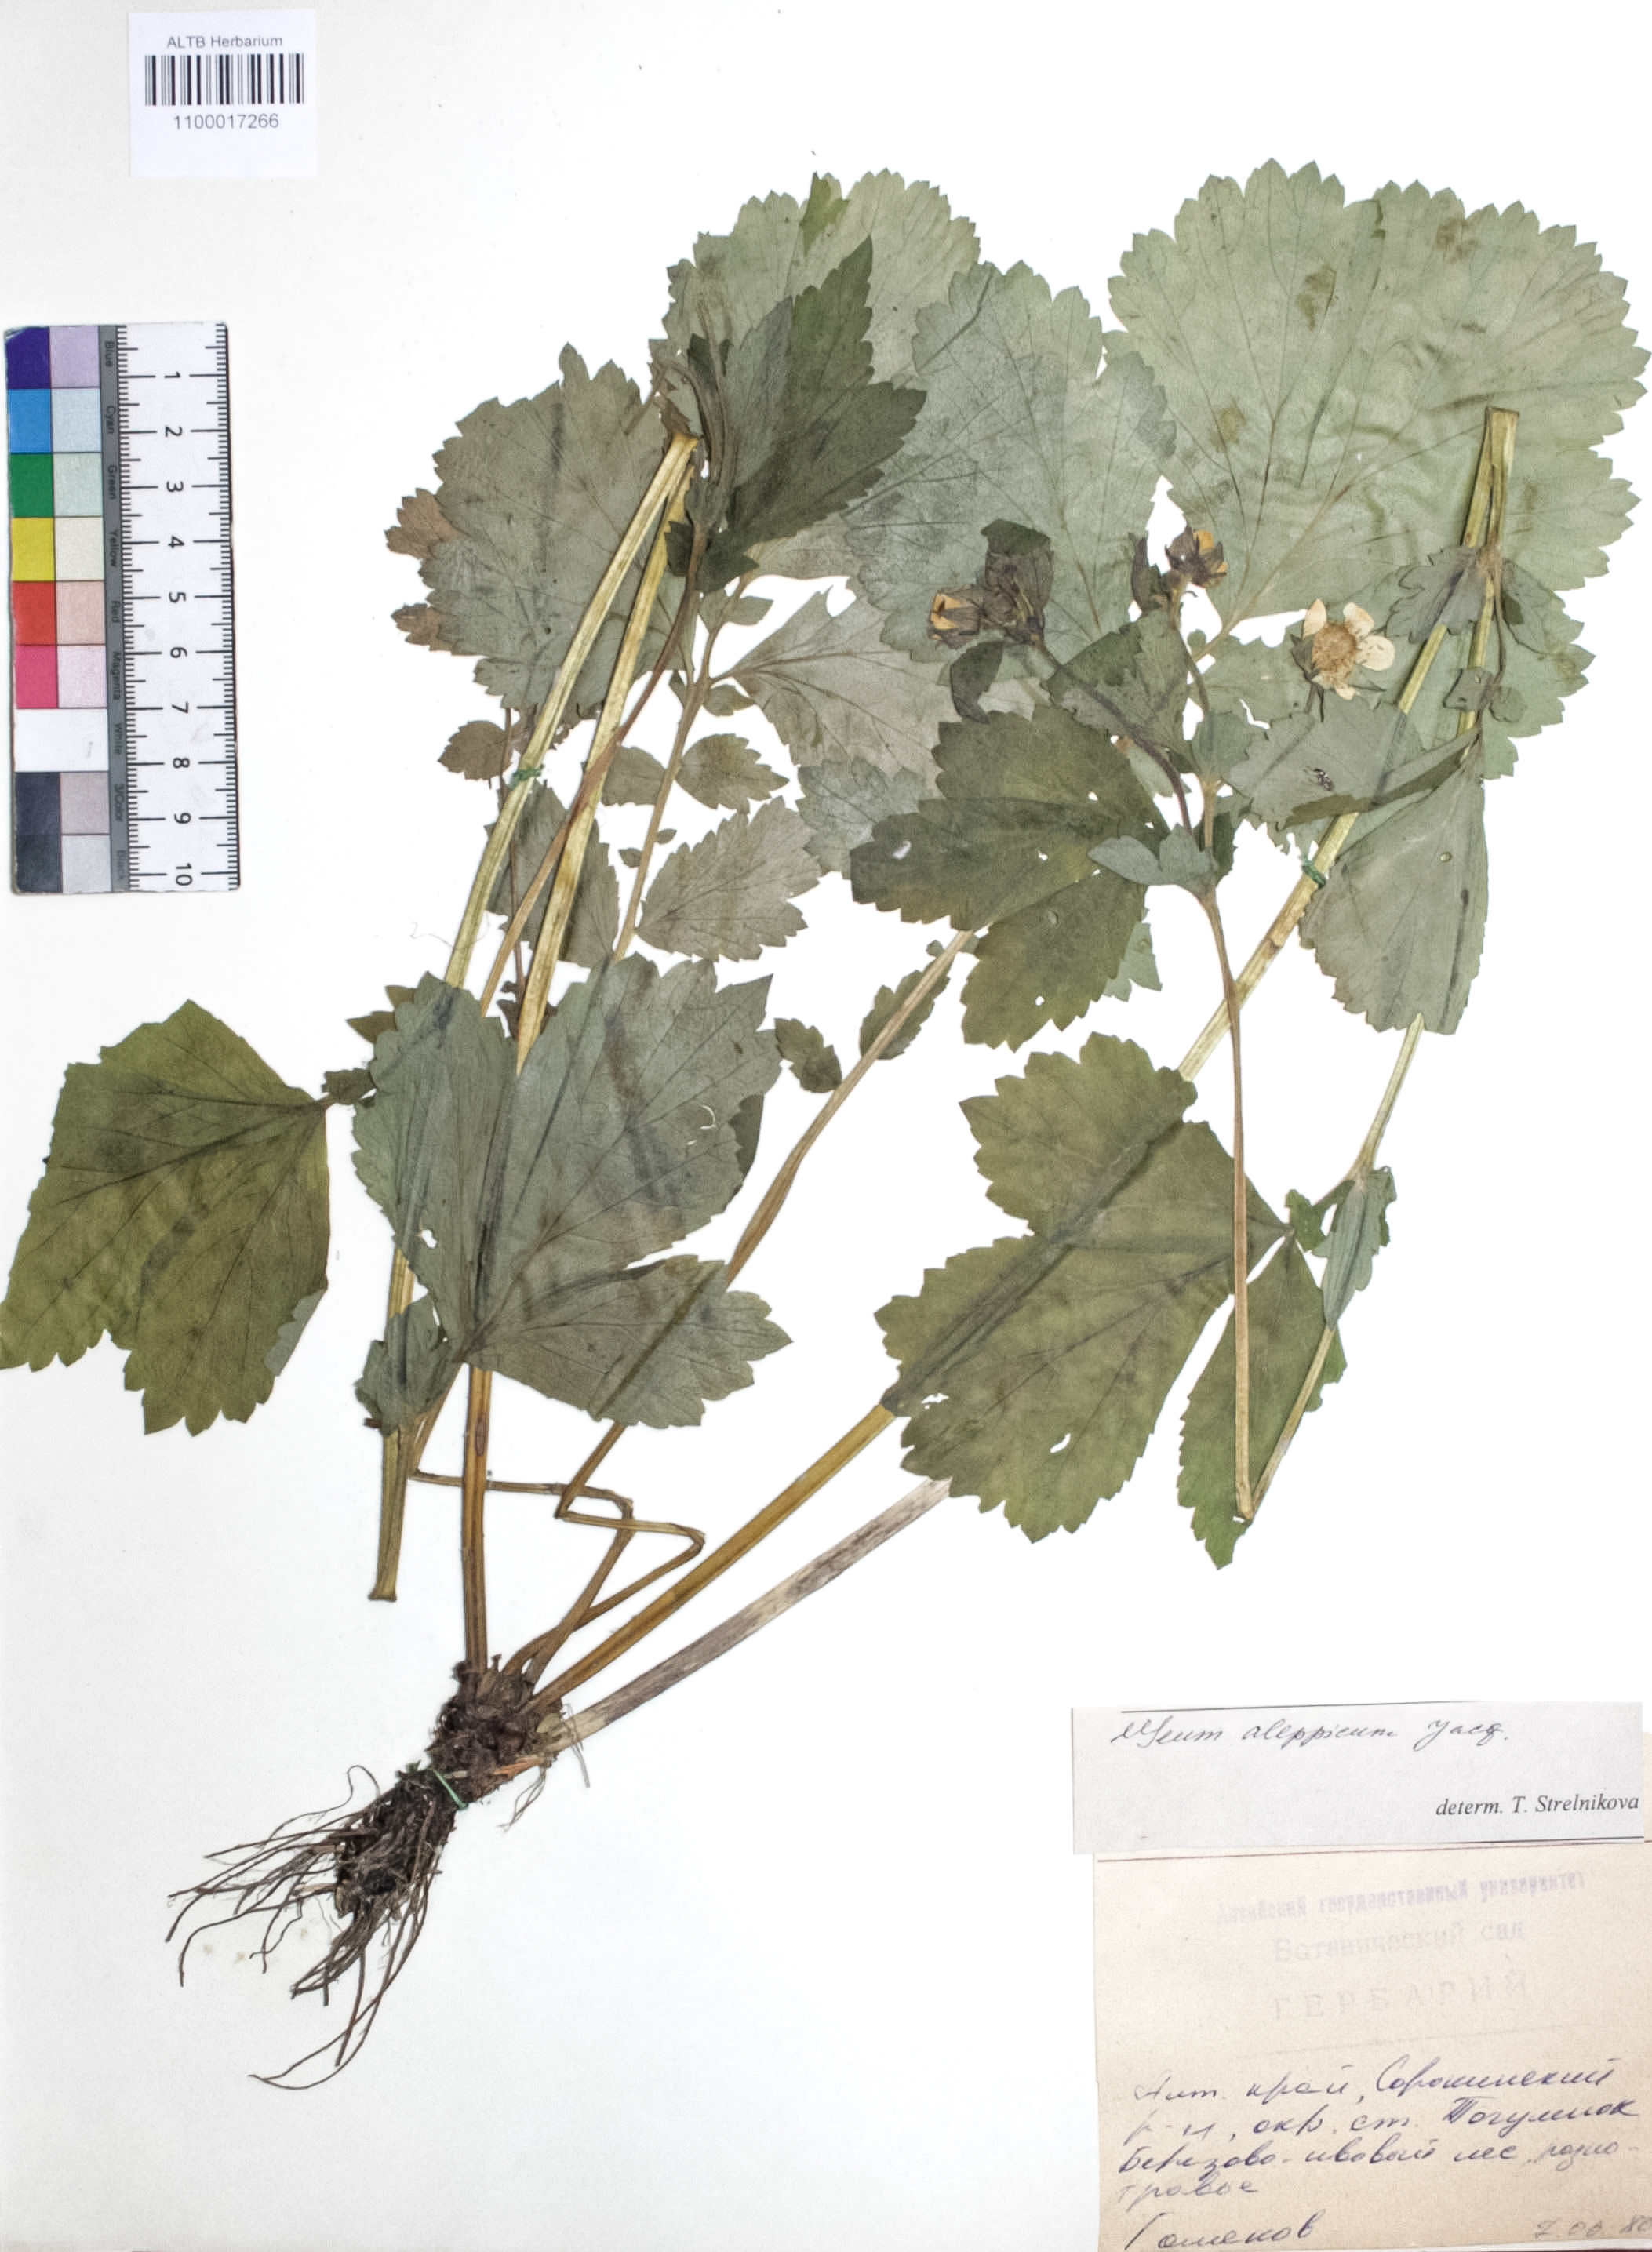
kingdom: Plantae
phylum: Tracheophyta
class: Magnoliopsida
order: Rosales
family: Rosaceae
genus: Geum
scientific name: Geum aleppicum
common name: Yellow avens
